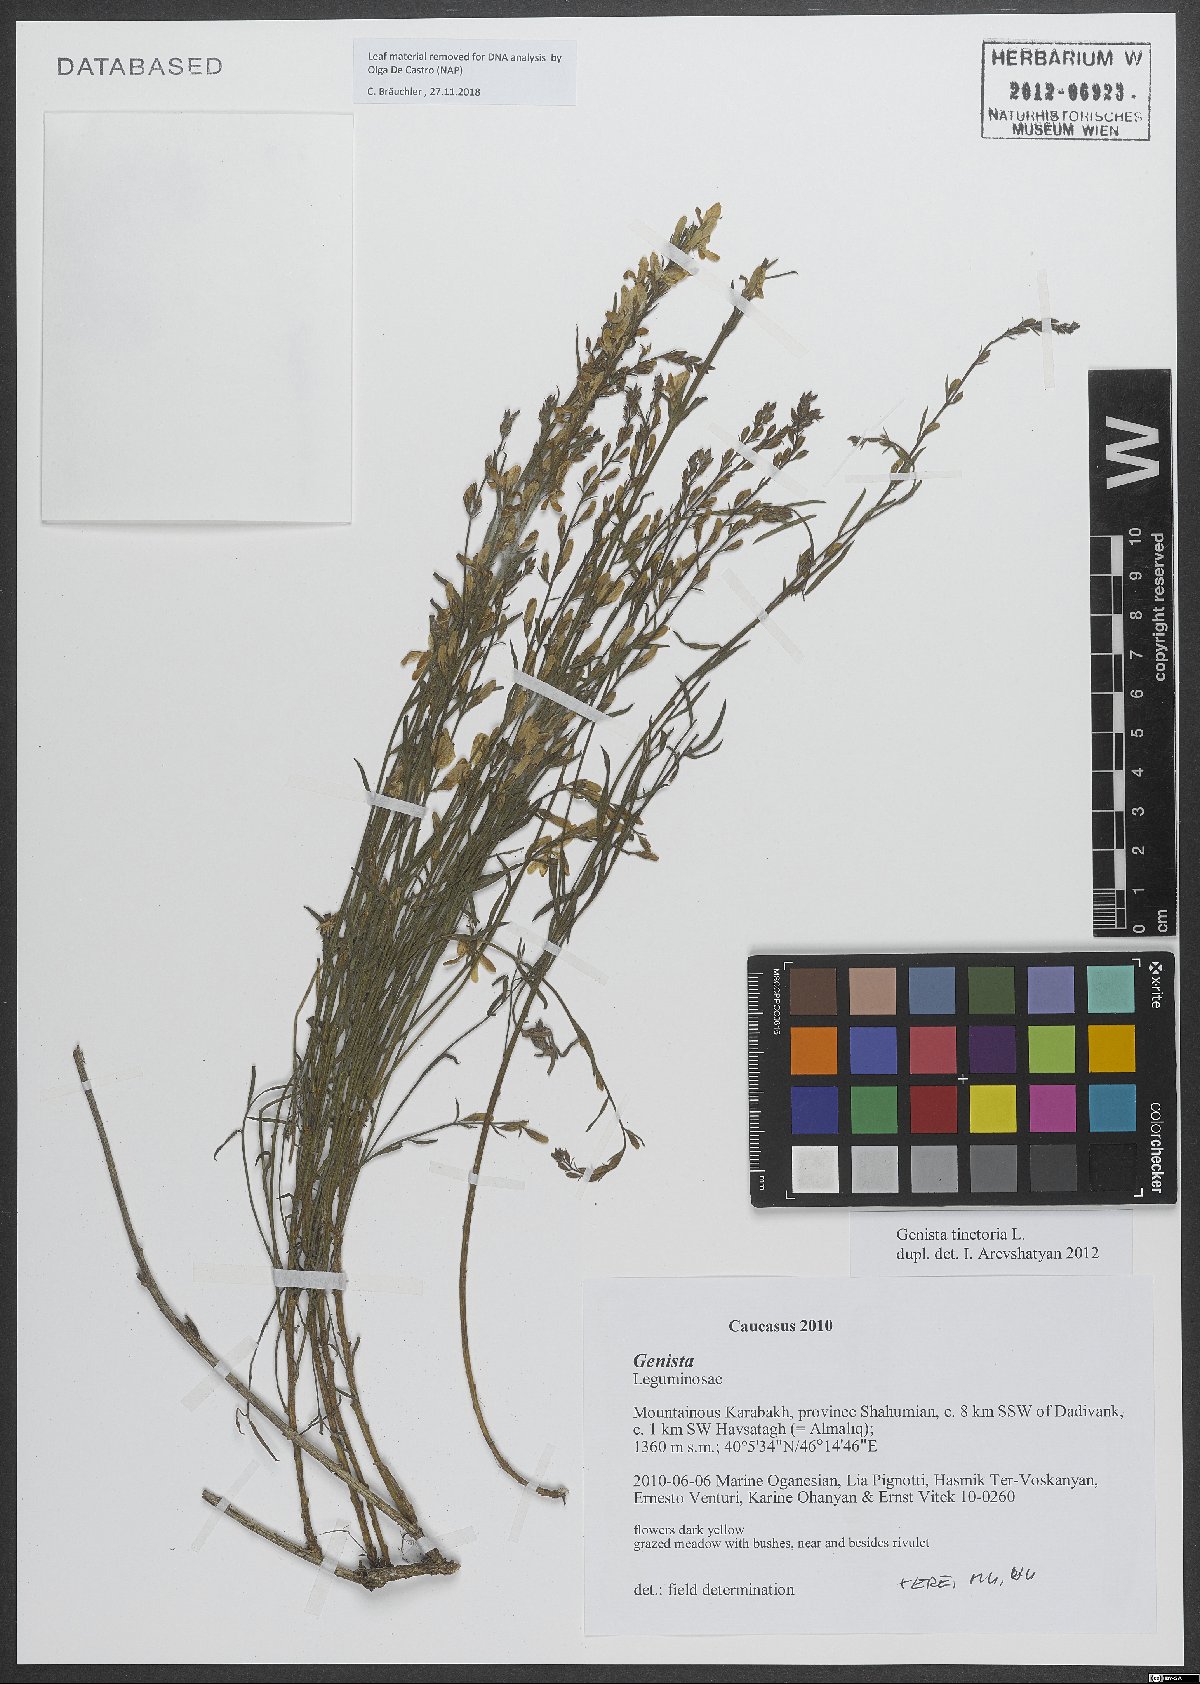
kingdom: Plantae
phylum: Tracheophyta
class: Magnoliopsida
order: Fabales
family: Fabaceae
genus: Genista
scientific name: Genista tinctoria
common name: Dyer's greenweed
